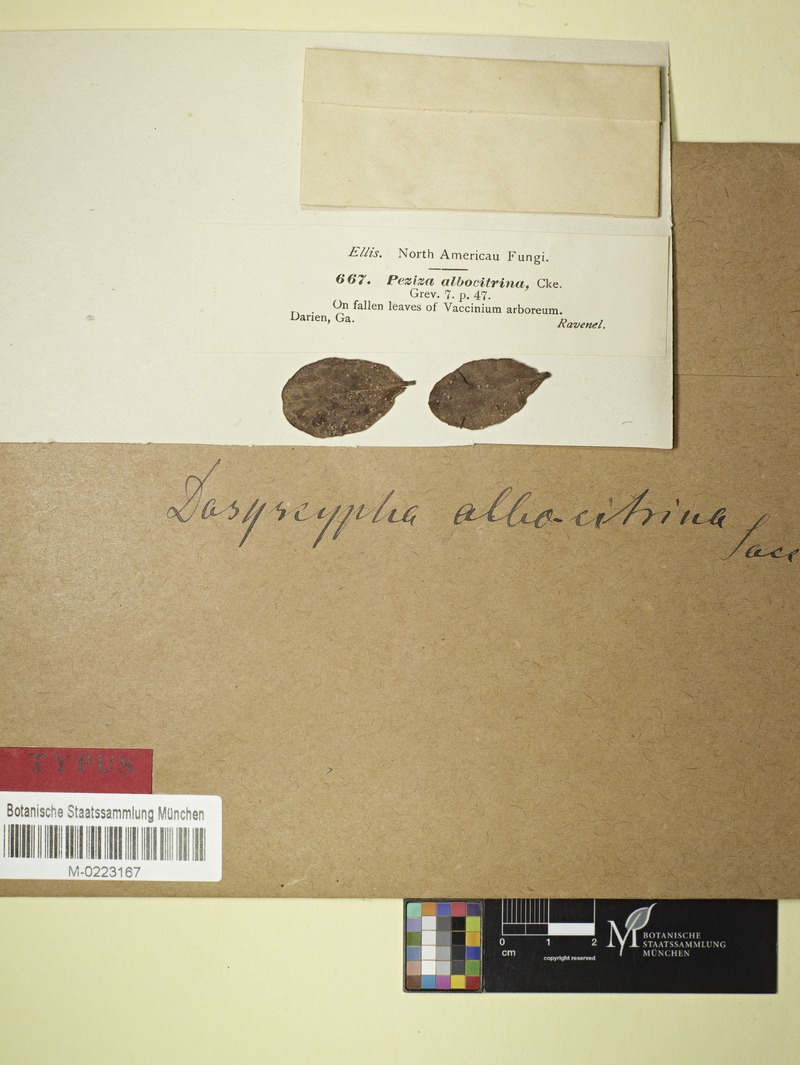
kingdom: Fungi
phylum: Ascomycota
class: Leotiomycetes
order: Helotiales
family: Lachnaceae
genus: Dasyscyphella
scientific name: Dasyscyphella albocitrina
